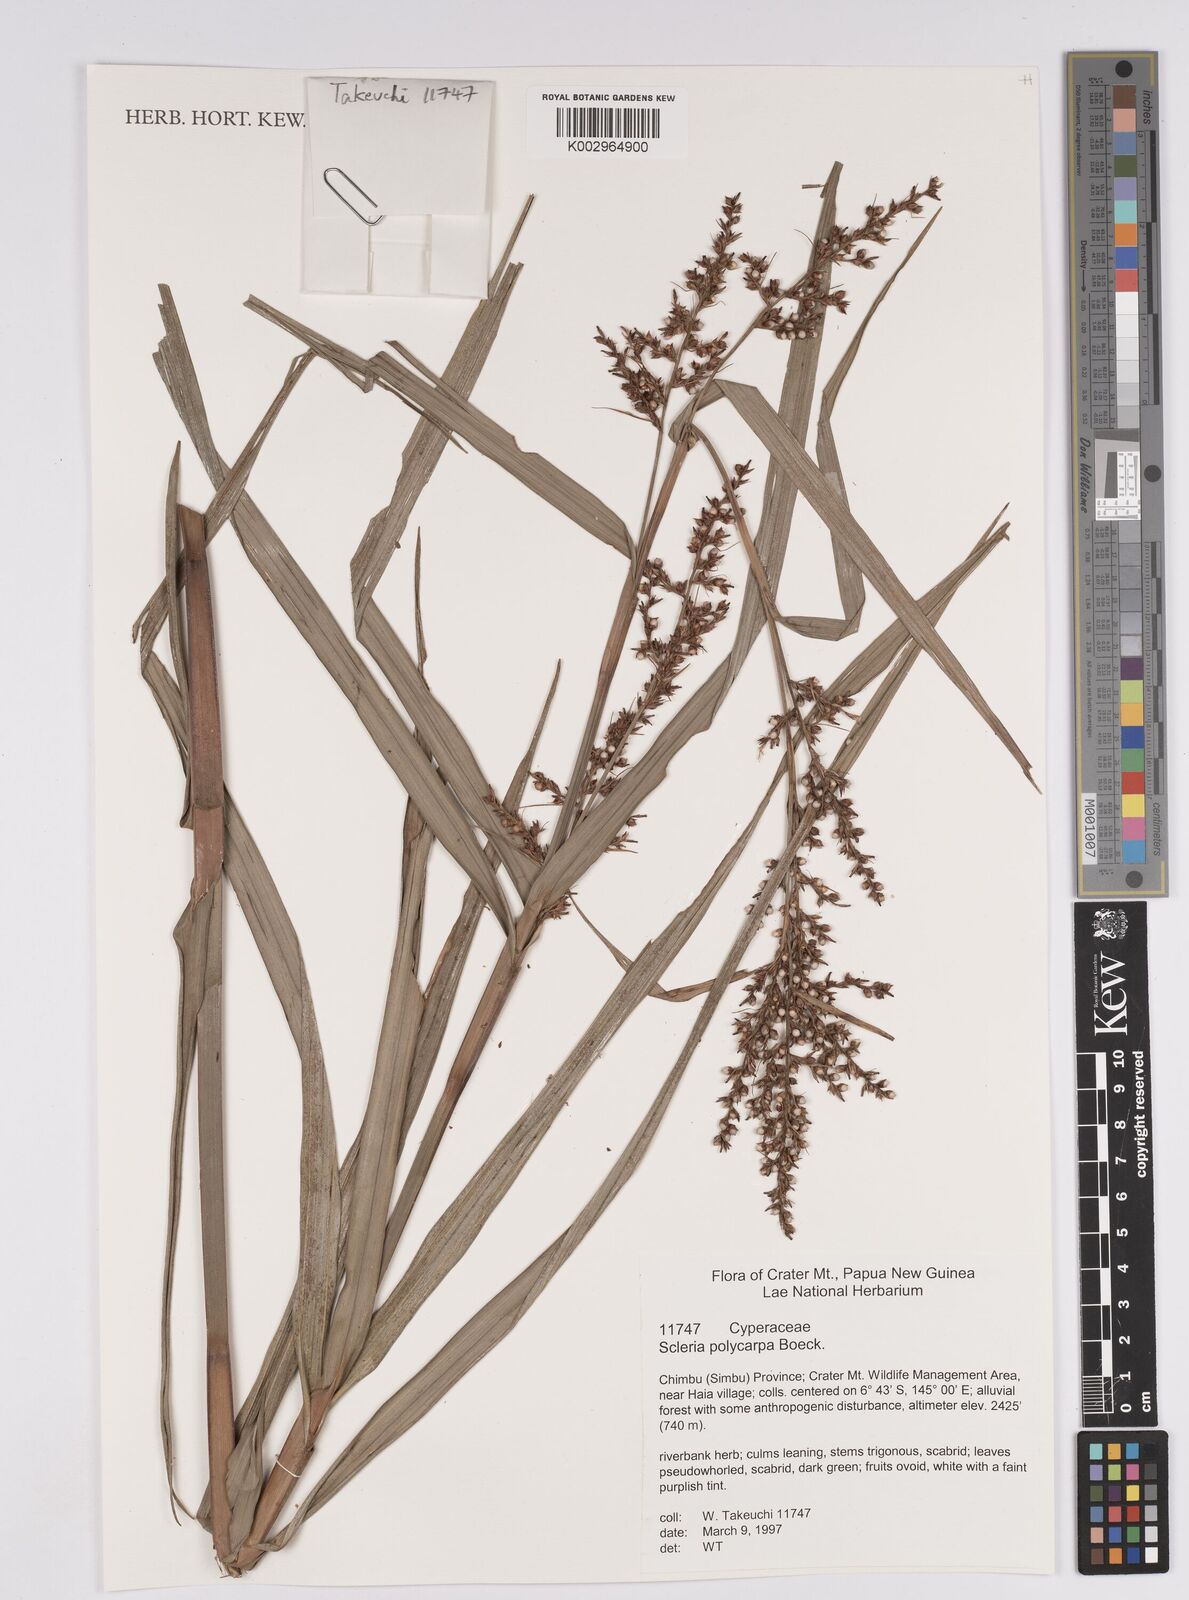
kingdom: Plantae
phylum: Tracheophyta
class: Liliopsida
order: Poales
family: Cyperaceae
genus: Scleria
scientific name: Scleria polycarpa
